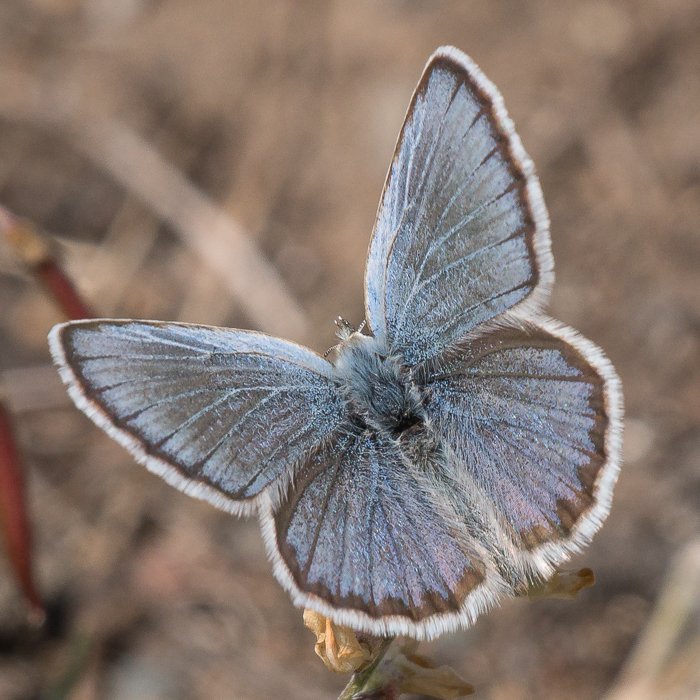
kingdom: Animalia
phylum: Arthropoda
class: Insecta
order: Lepidoptera
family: Lycaenidae
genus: Lycaeides
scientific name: Lycaeides idas
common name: Northern Blue
